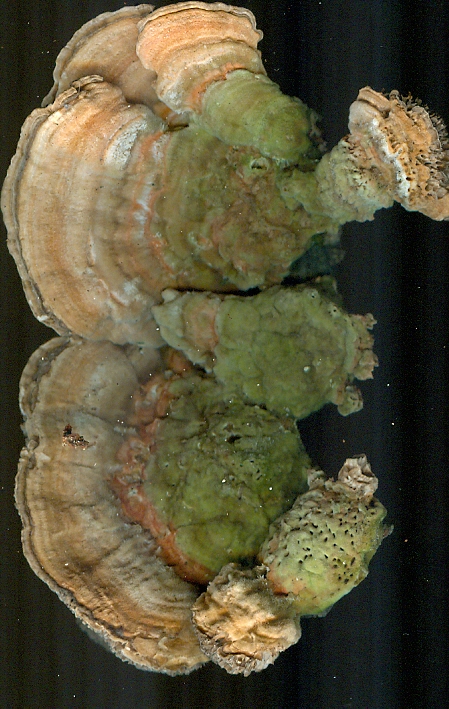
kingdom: Fungi
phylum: Basidiomycota
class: Agaricomycetes
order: Polyporales
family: Polyporaceae
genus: Lenzites
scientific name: Lenzites betulinus
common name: birke-læderporesvamp
